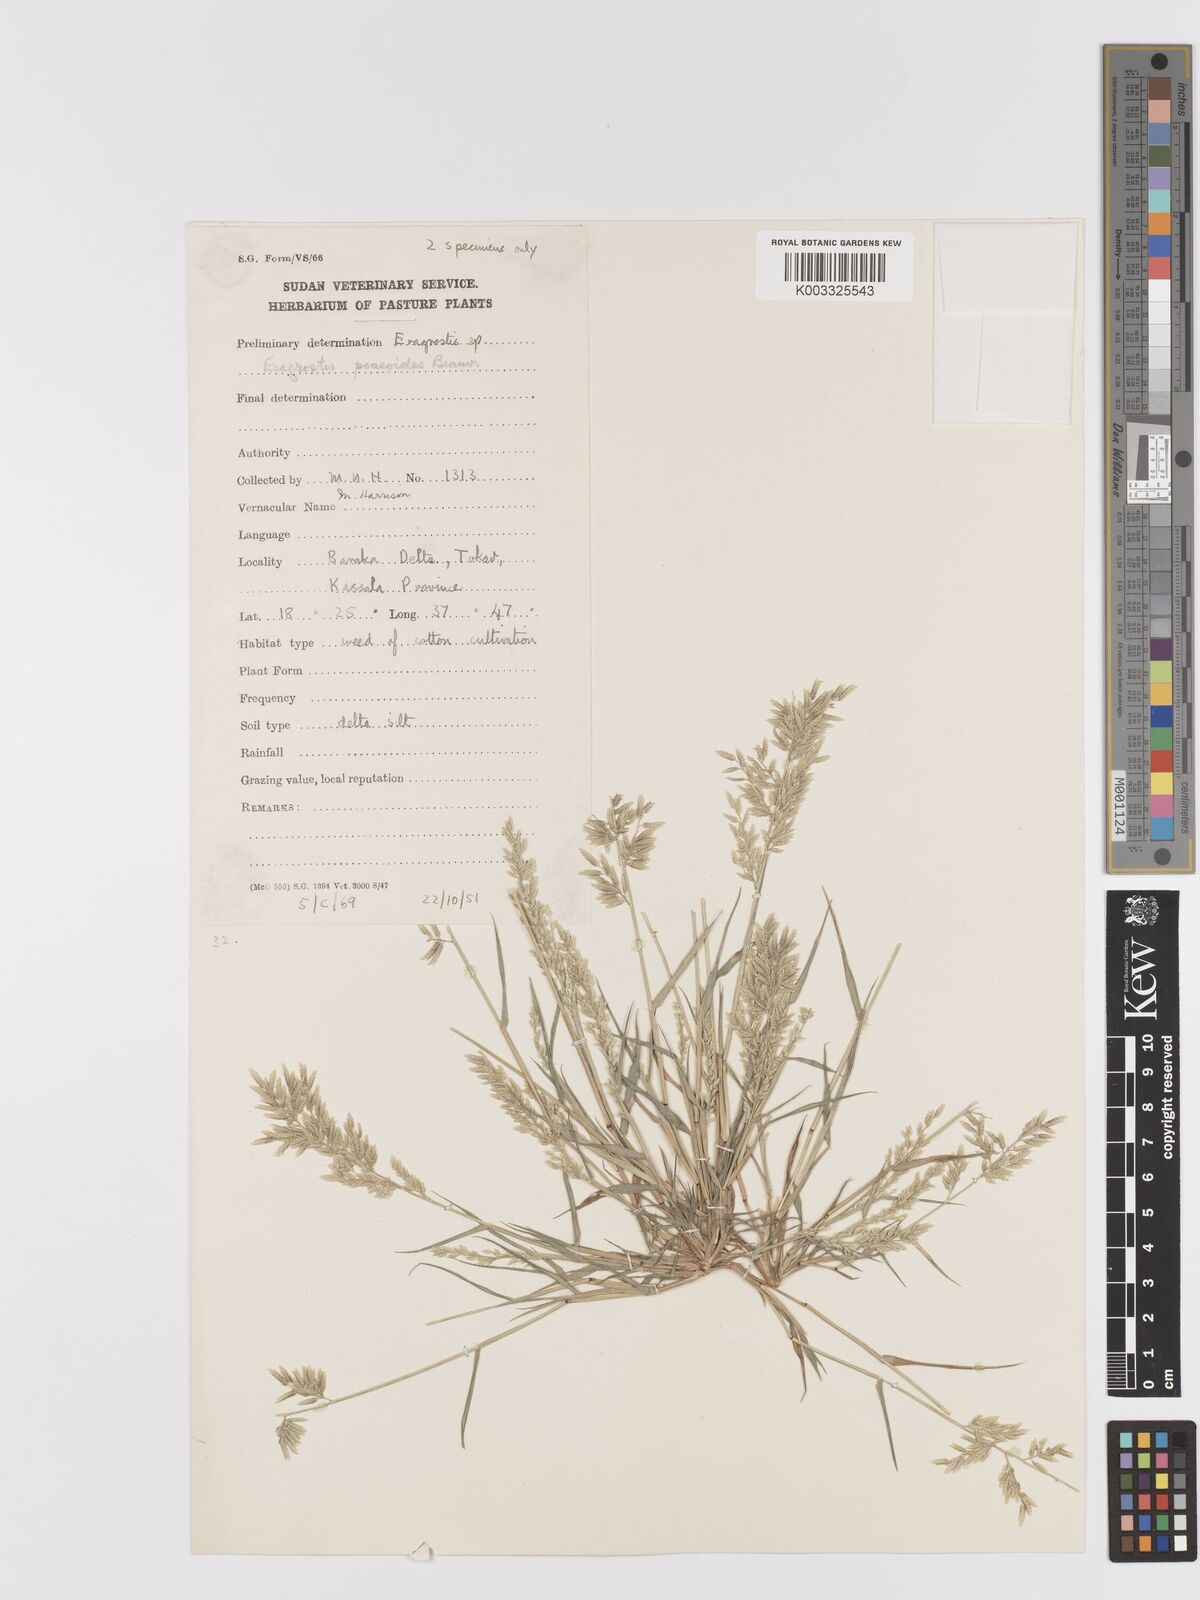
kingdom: Plantae
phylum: Tracheophyta
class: Liliopsida
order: Poales
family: Poaceae
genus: Eragrostis
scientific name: Eragrostis minor
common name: Small love-grass
